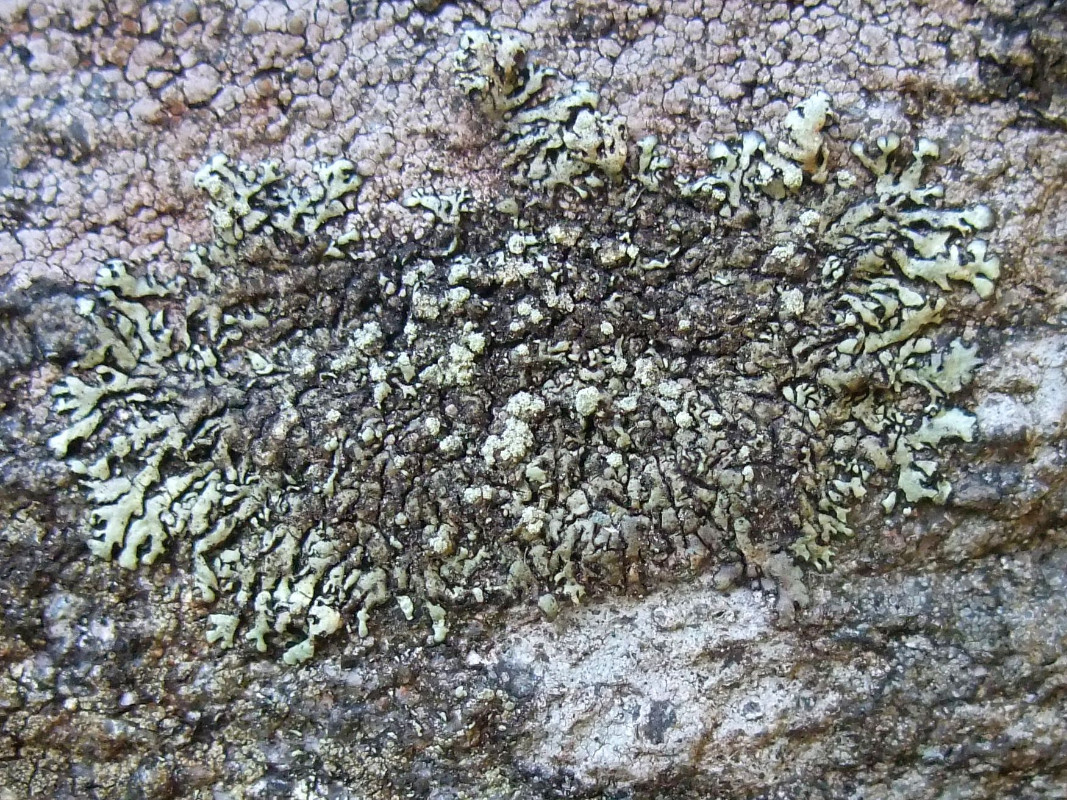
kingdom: Fungi
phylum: Ascomycota
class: Lecanoromycetes
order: Lecanorales
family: Parmeliaceae
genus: Xanthoparmelia
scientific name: Xanthoparmelia mougeotii
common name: liden skållav
